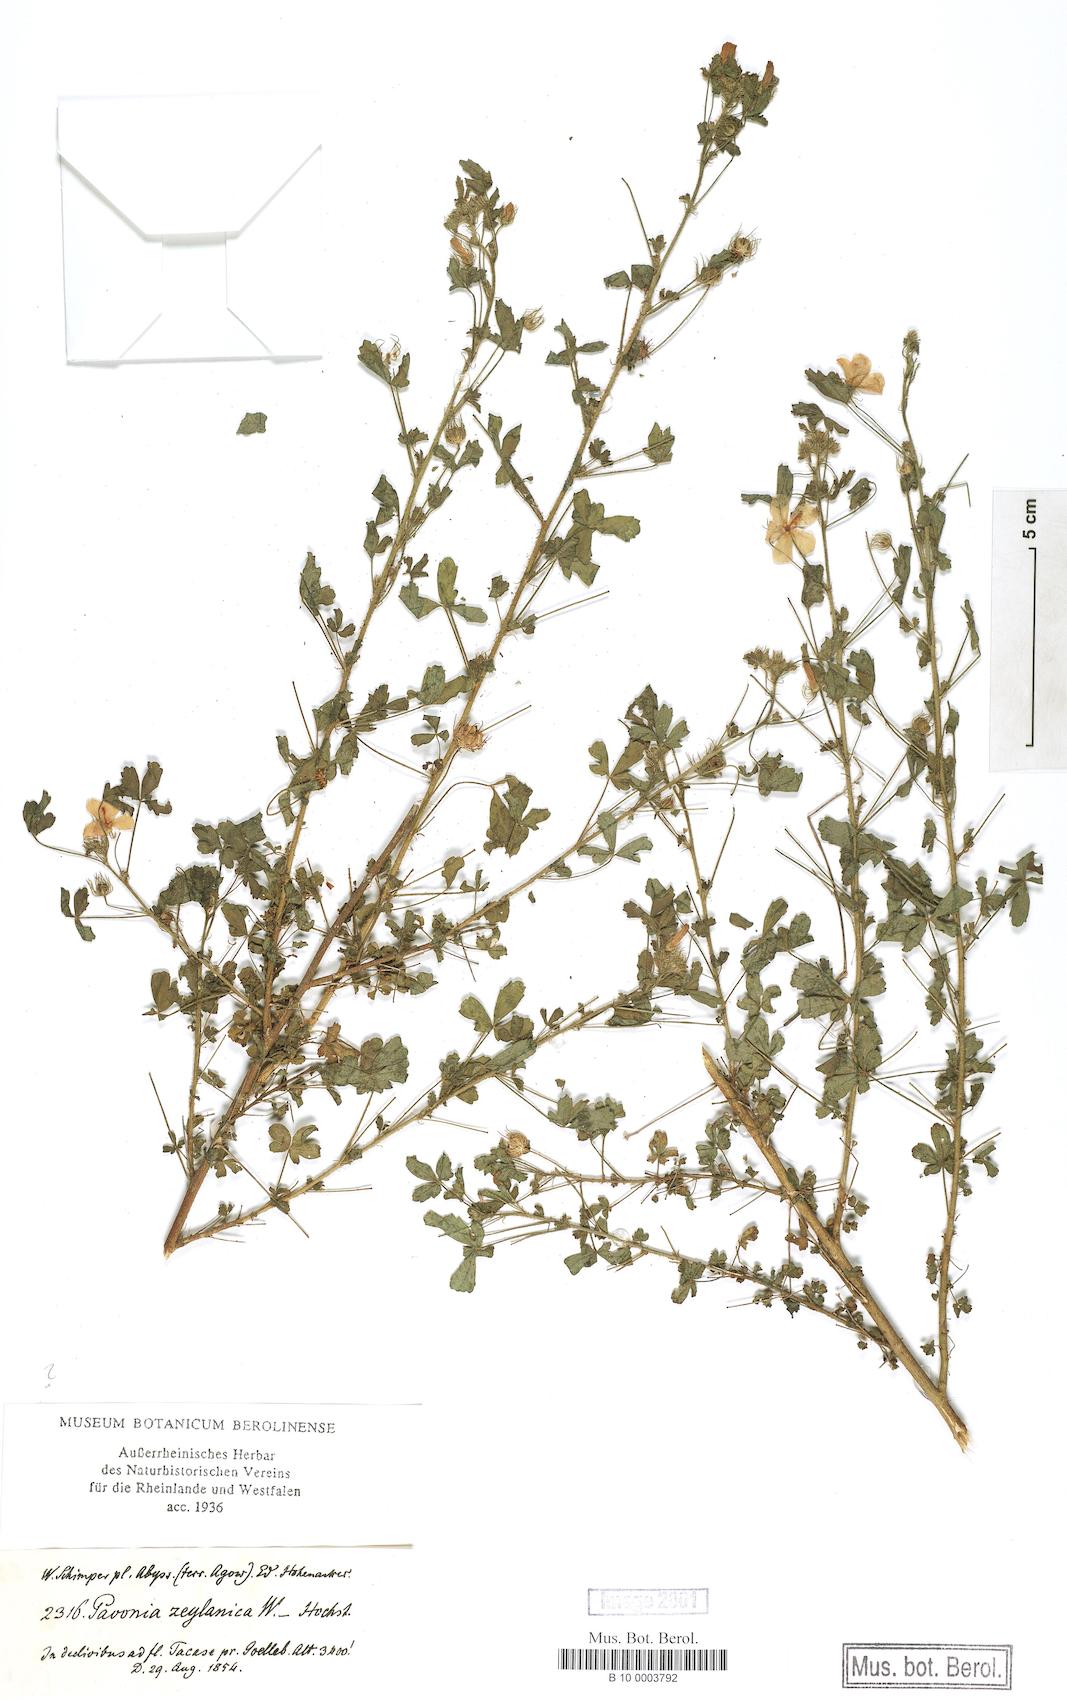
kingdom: Plantae
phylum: Tracheophyta
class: Magnoliopsida
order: Malvales
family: Malvaceae
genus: Pavonia
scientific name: Pavonia zeylanica
